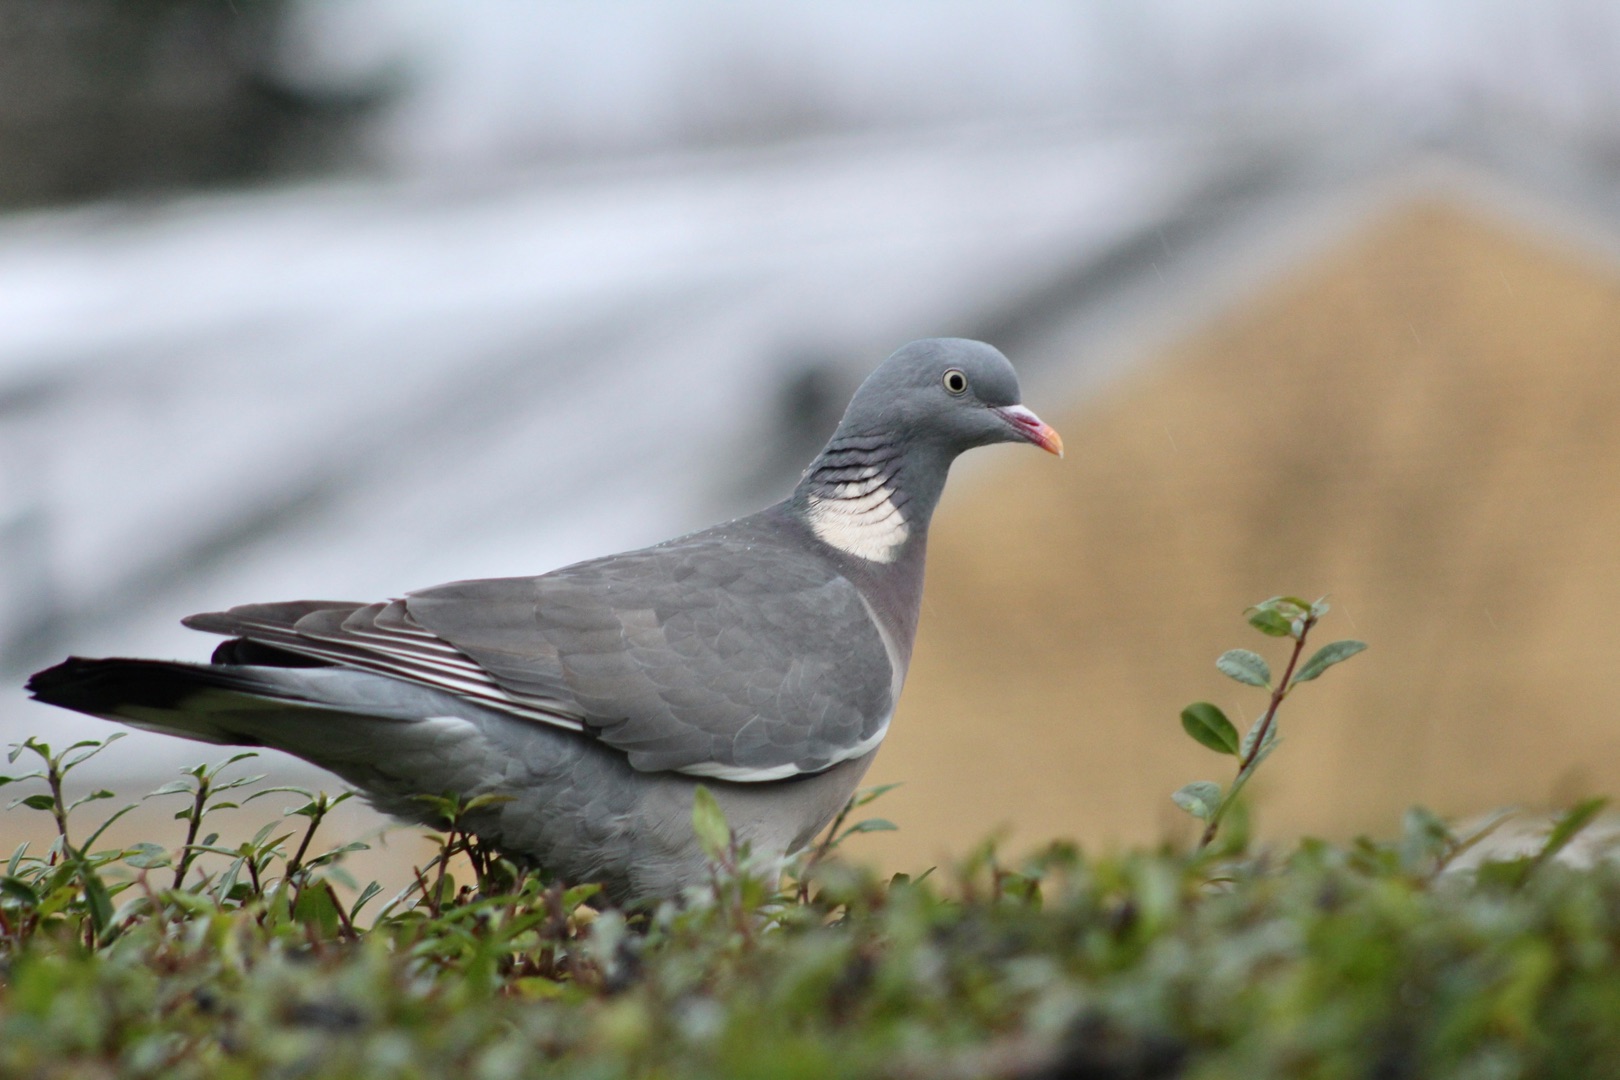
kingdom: Animalia
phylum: Chordata
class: Aves
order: Columbiformes
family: Columbidae
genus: Columba
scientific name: Columba palumbus
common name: Ringdue
